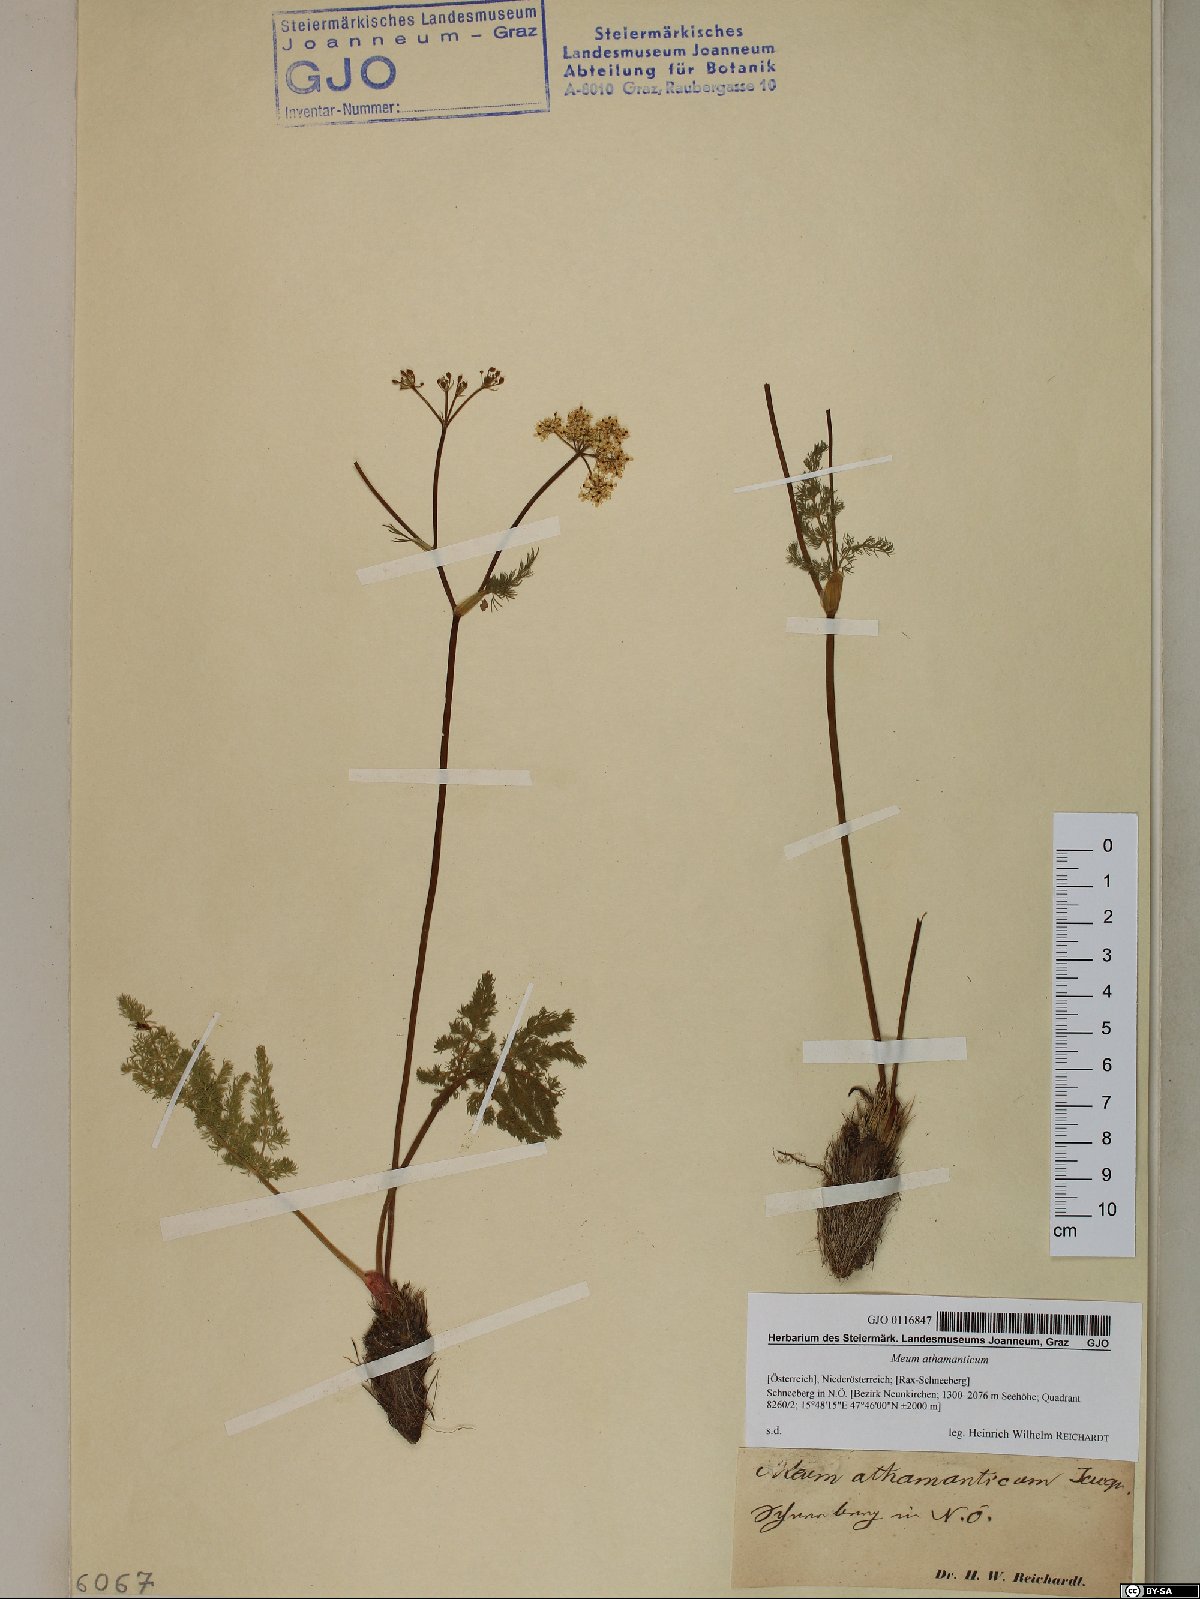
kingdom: Plantae
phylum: Tracheophyta
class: Magnoliopsida
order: Apiales
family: Apiaceae
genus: Meum
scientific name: Meum athamanticum
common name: Spignel
